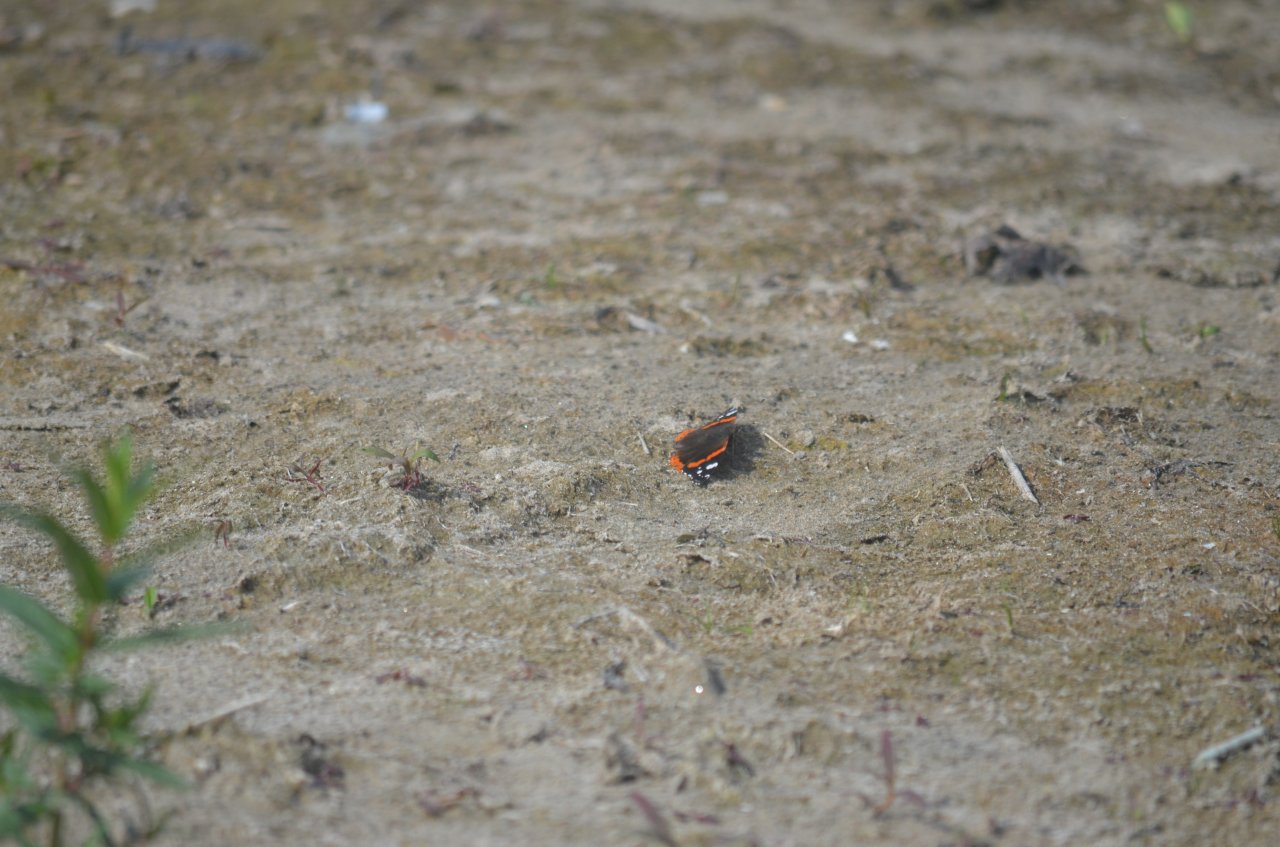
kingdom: Animalia
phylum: Arthropoda
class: Insecta
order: Lepidoptera
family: Nymphalidae
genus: Vanessa
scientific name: Vanessa atalanta
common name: Red Admiral
